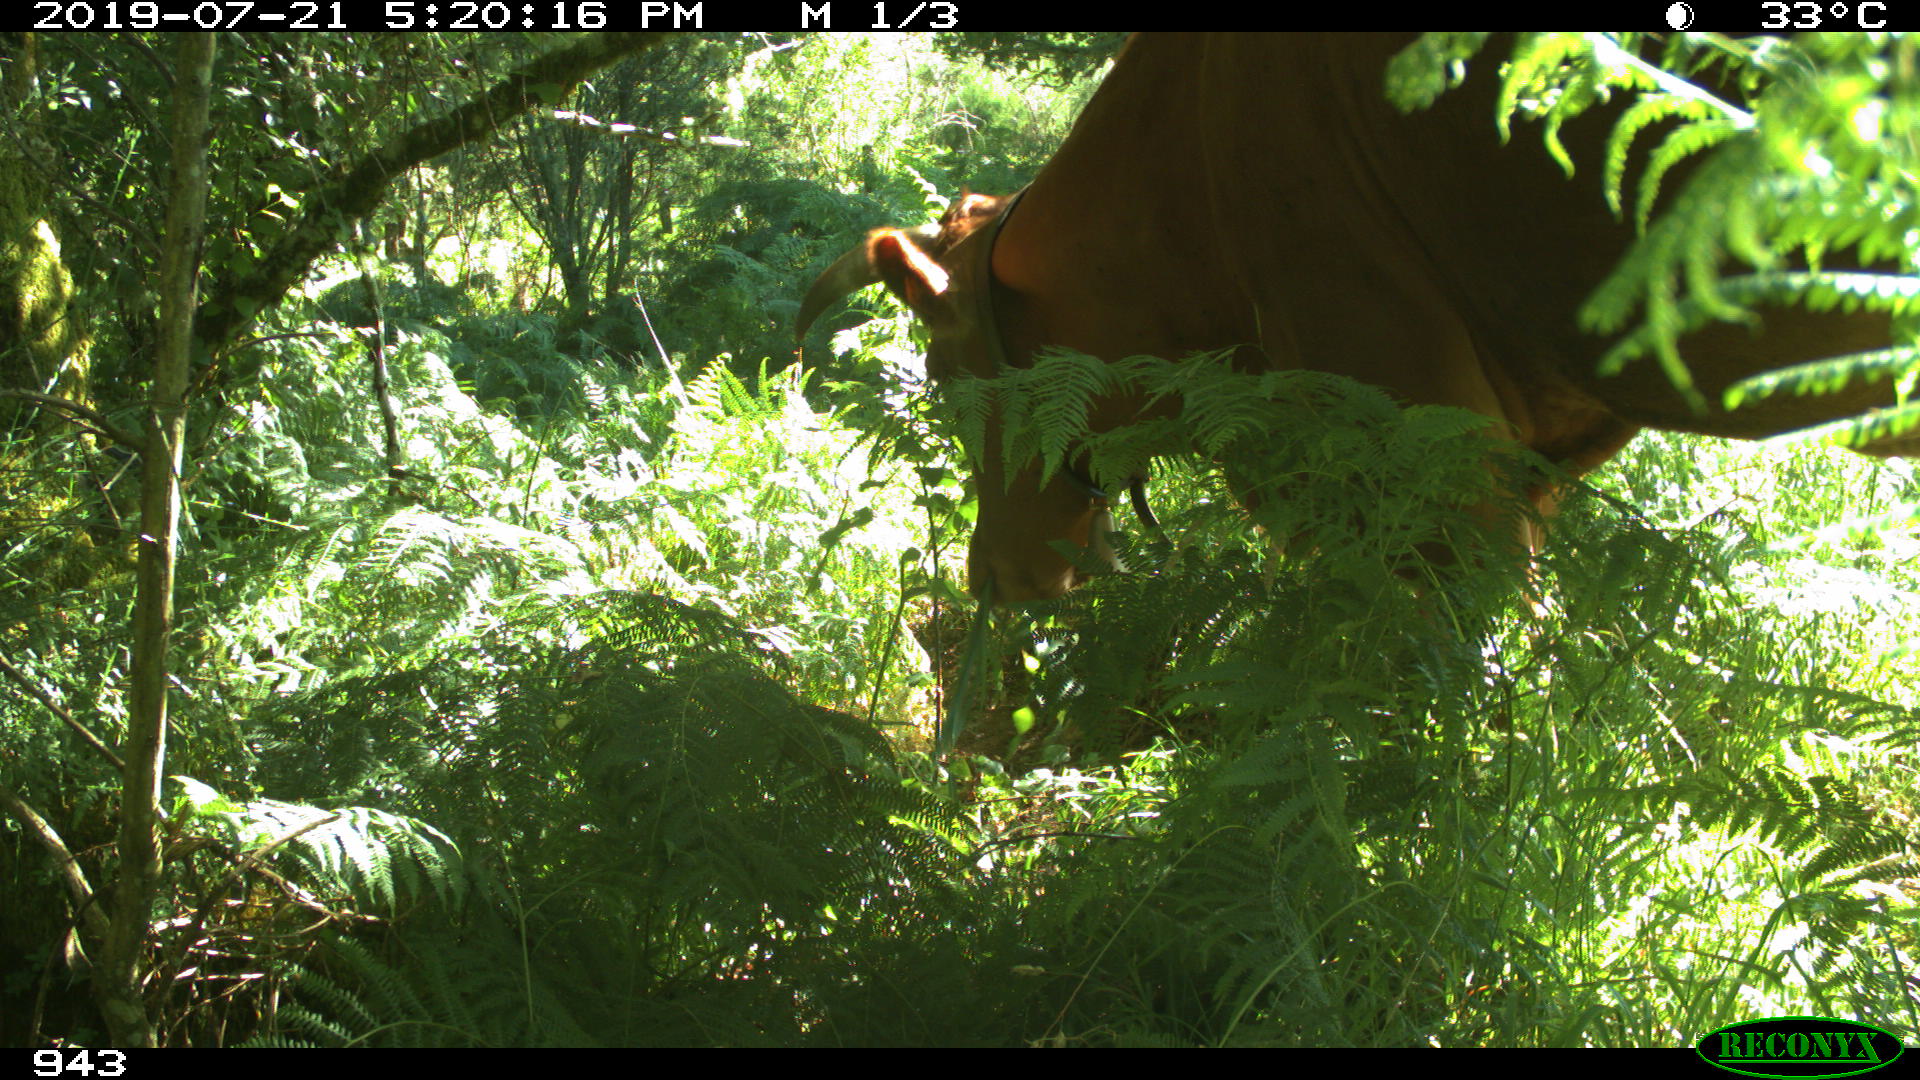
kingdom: Animalia
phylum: Chordata
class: Mammalia
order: Artiodactyla
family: Bovidae
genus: Bos
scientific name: Bos taurus
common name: Domesticated cattle
